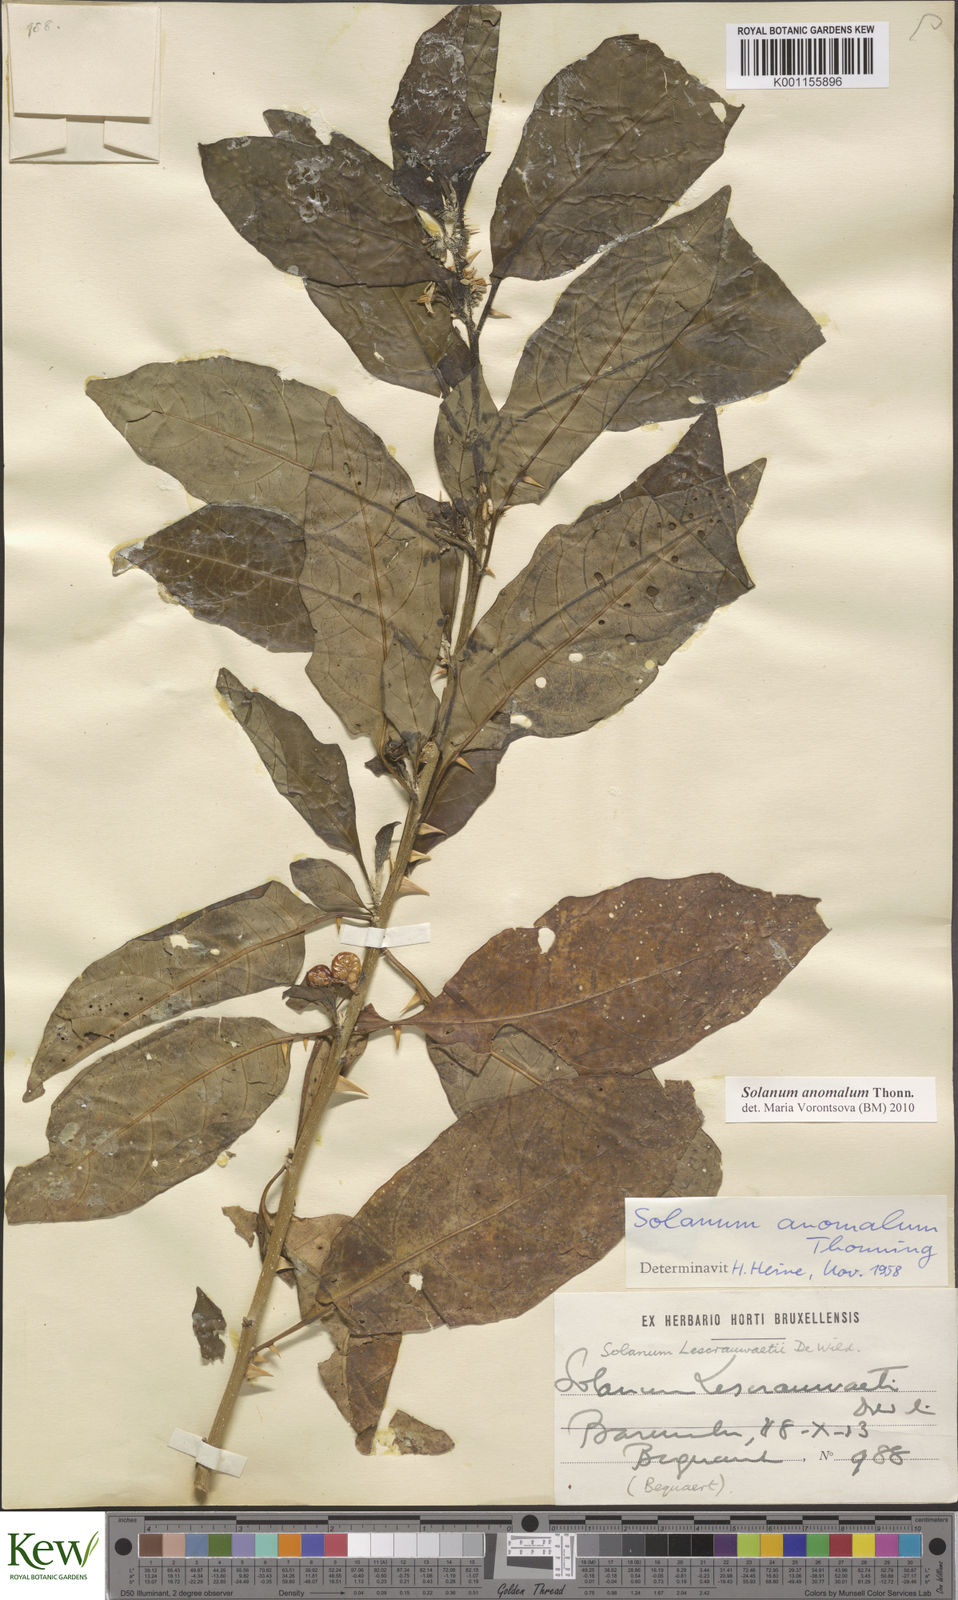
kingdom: Plantae
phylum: Tracheophyta
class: Magnoliopsida
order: Solanales
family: Solanaceae
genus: Solanum
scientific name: Solanum anomalum
